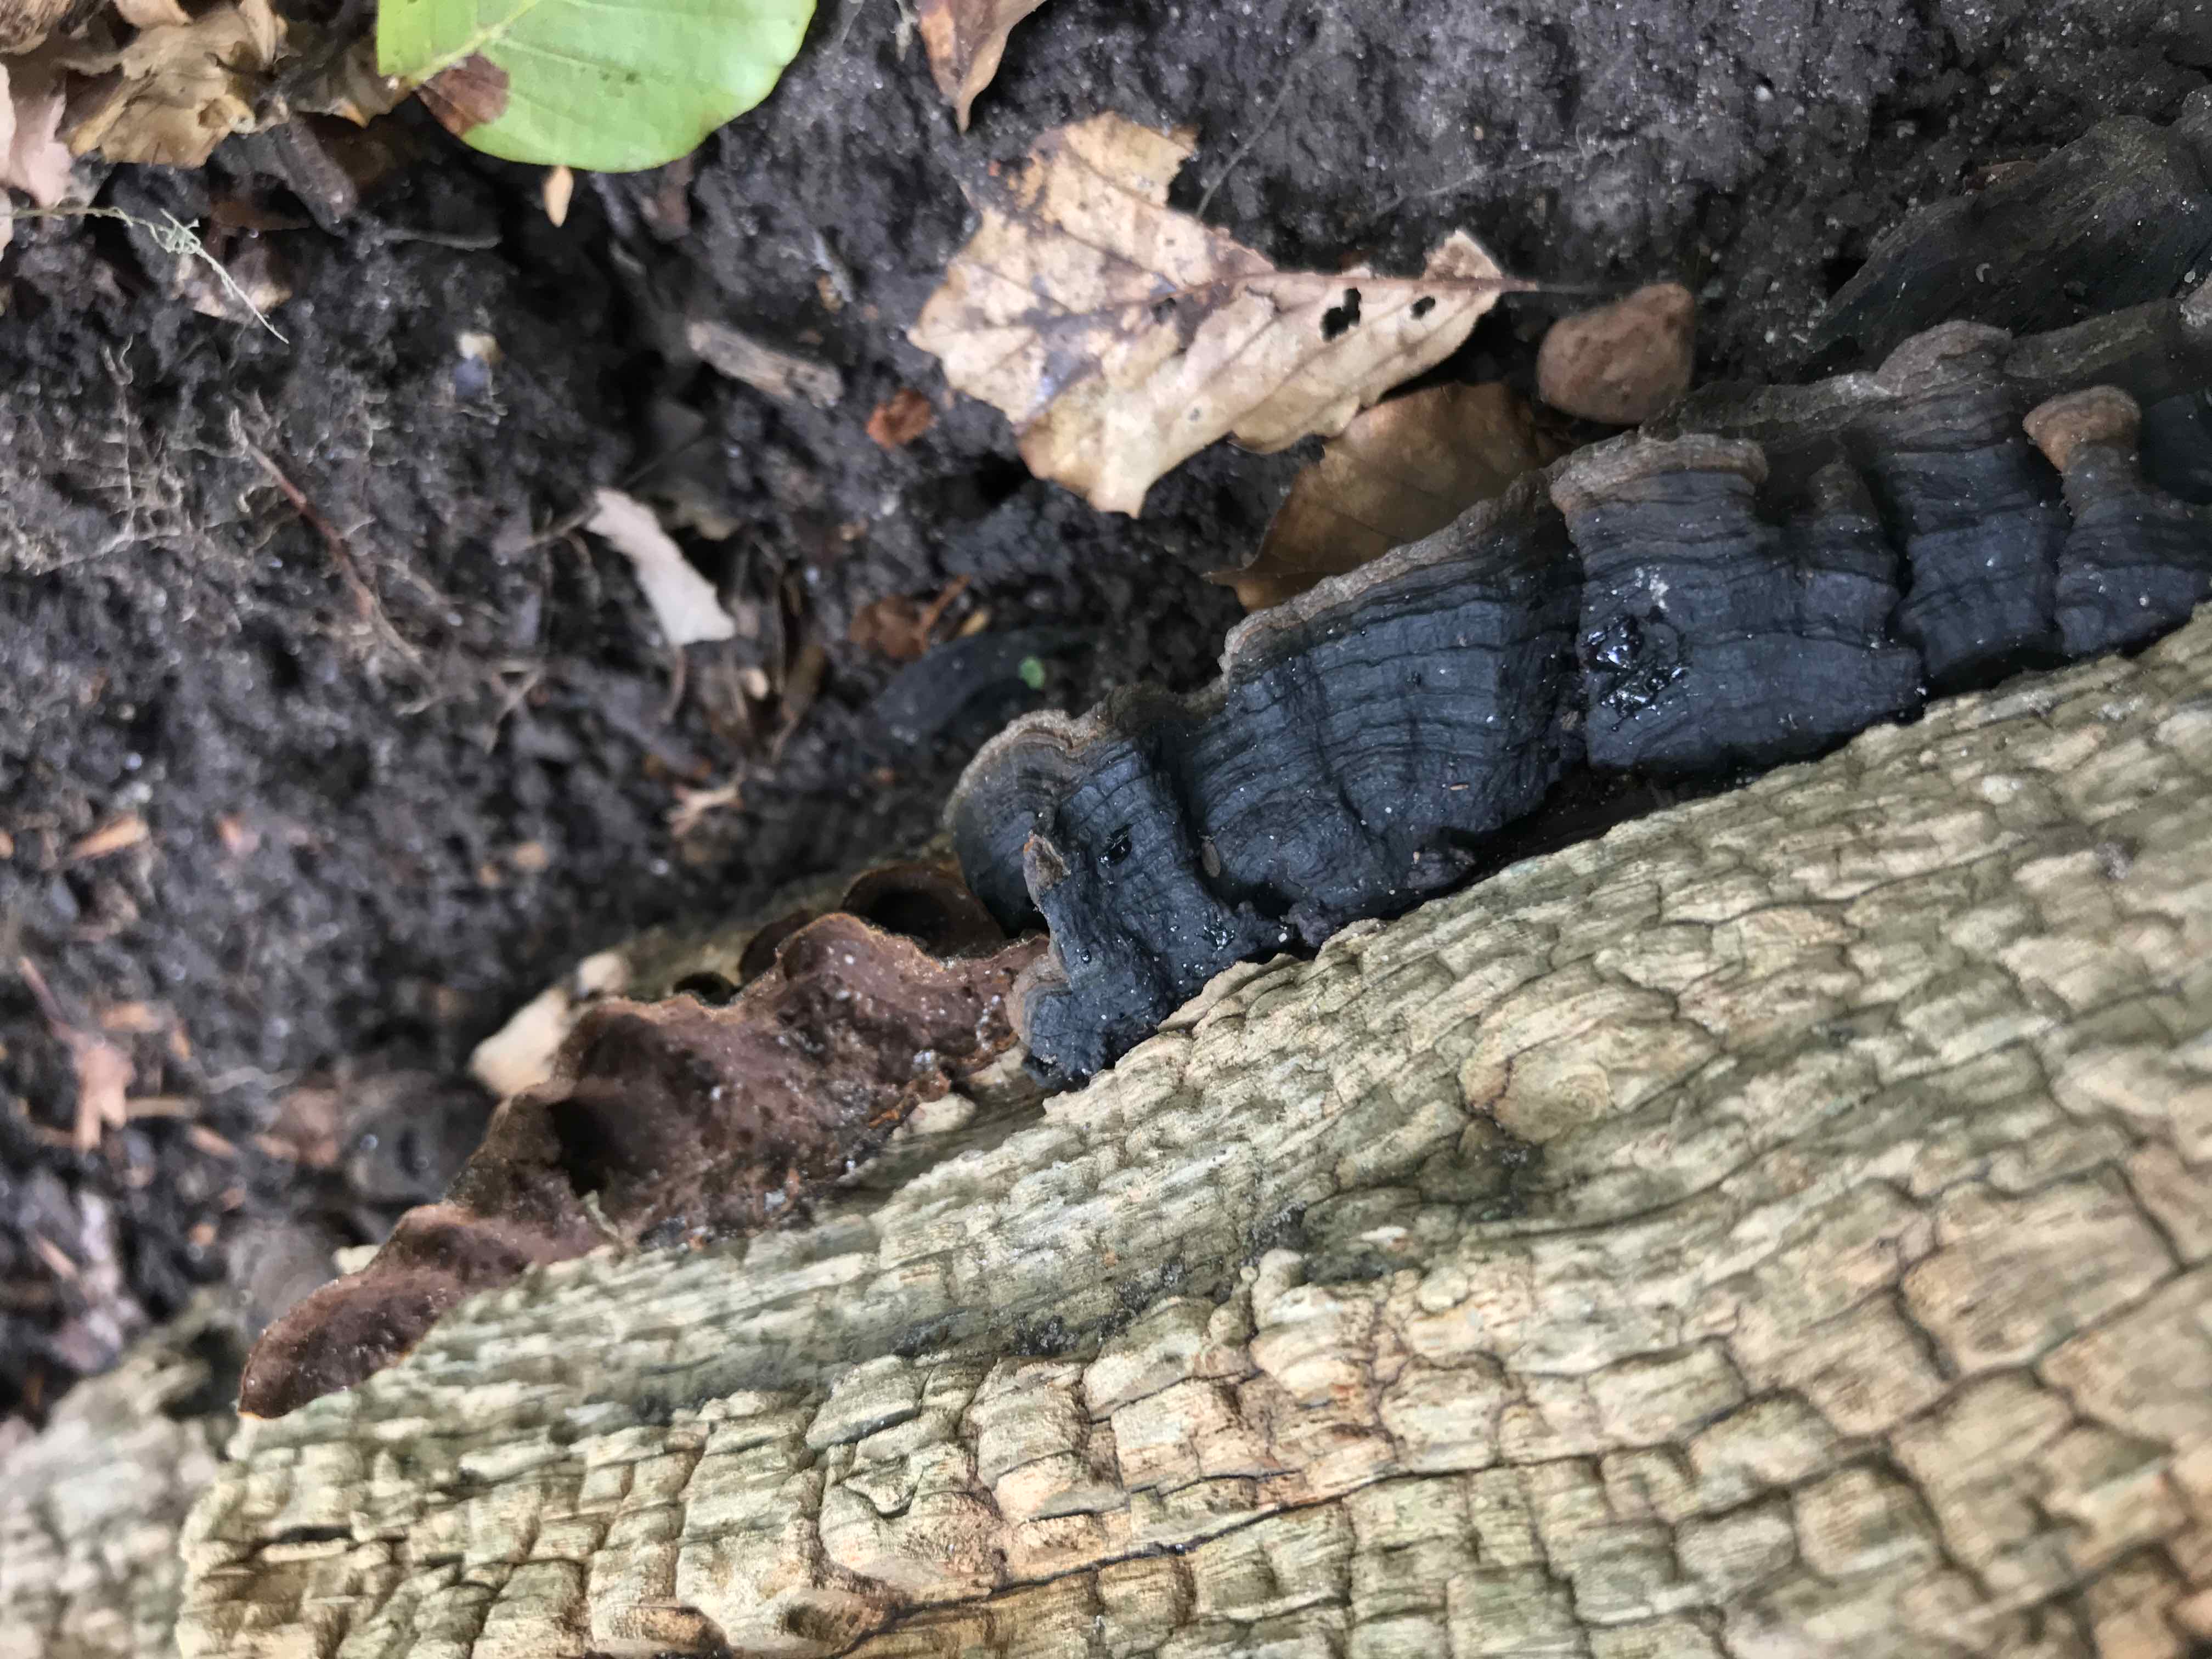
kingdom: Fungi
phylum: Basidiomycota
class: Agaricomycetes
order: Hymenochaetales
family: Hymenochaetaceae
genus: Hymenochaete
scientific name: Hymenochaete rubiginosa
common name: stiv ruslædersvamp
